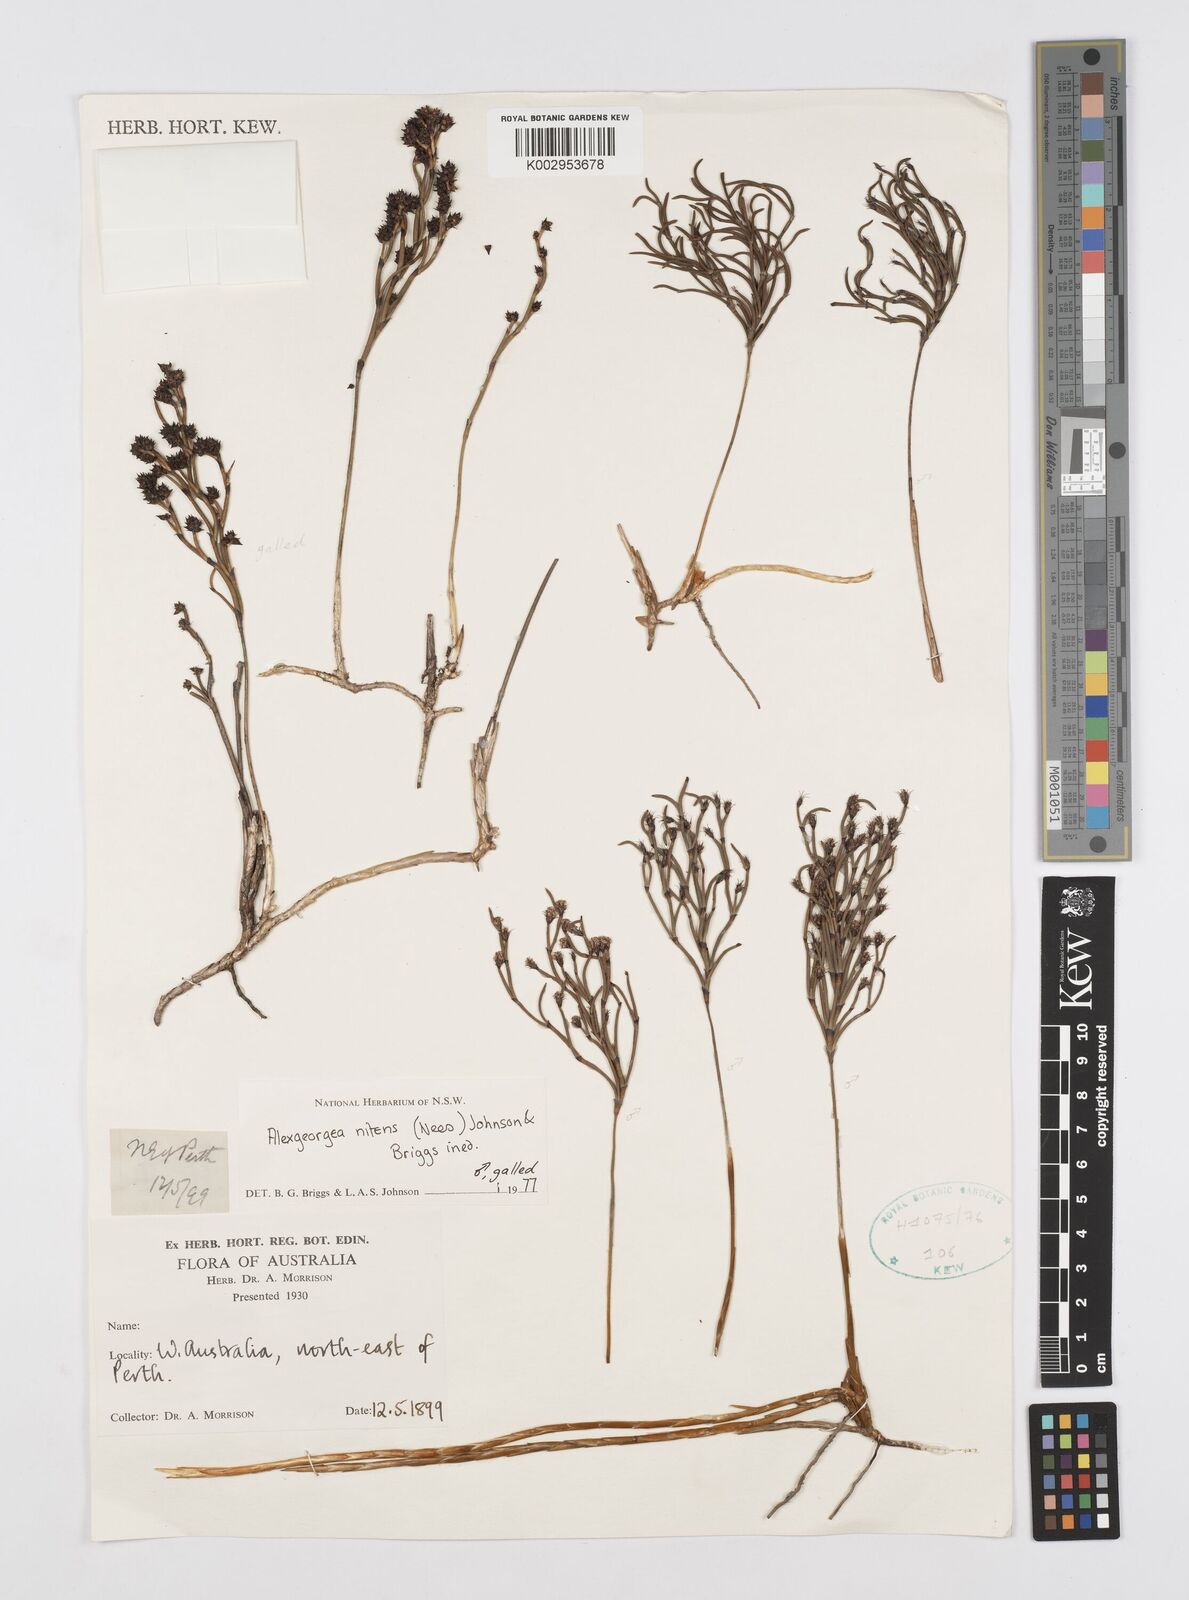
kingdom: Plantae
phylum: Tracheophyta
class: Liliopsida
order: Poales
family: Restionaceae
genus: Alexgeorgea
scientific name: Alexgeorgea nitens
